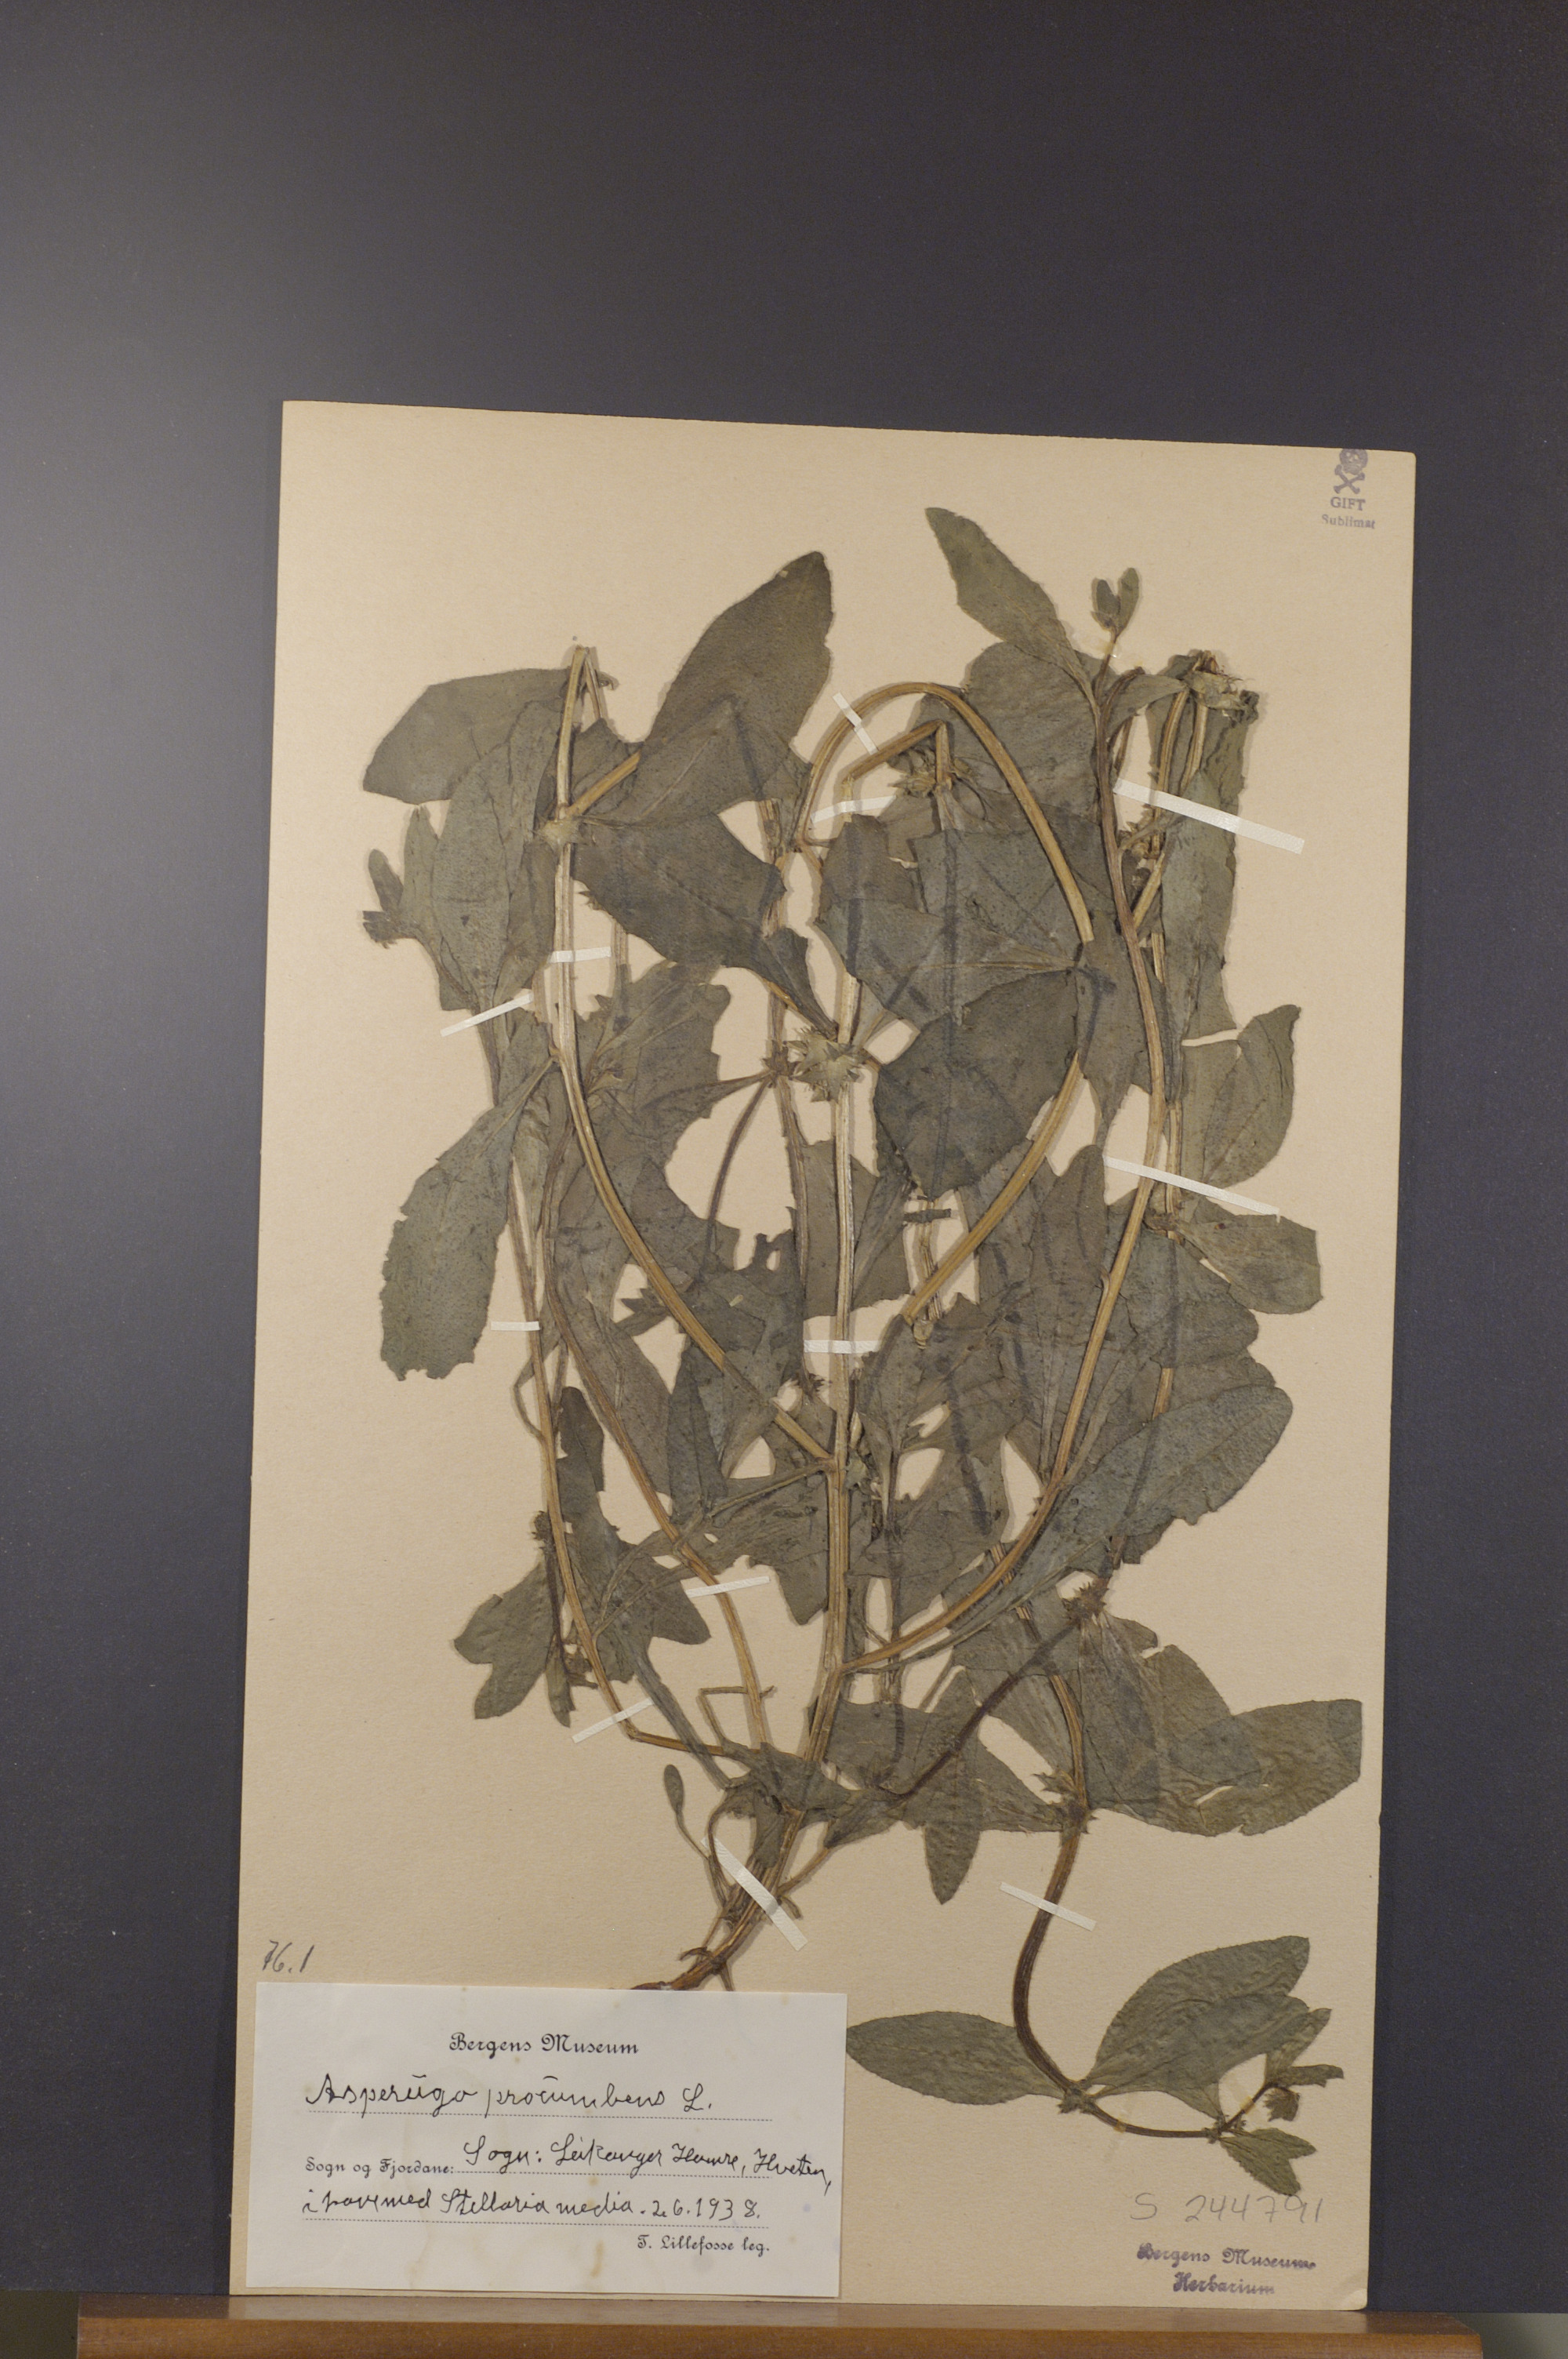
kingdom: Plantae
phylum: Tracheophyta
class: Magnoliopsida
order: Boraginales
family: Boraginaceae
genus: Asperugo
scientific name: Asperugo procumbens
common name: Madwort
